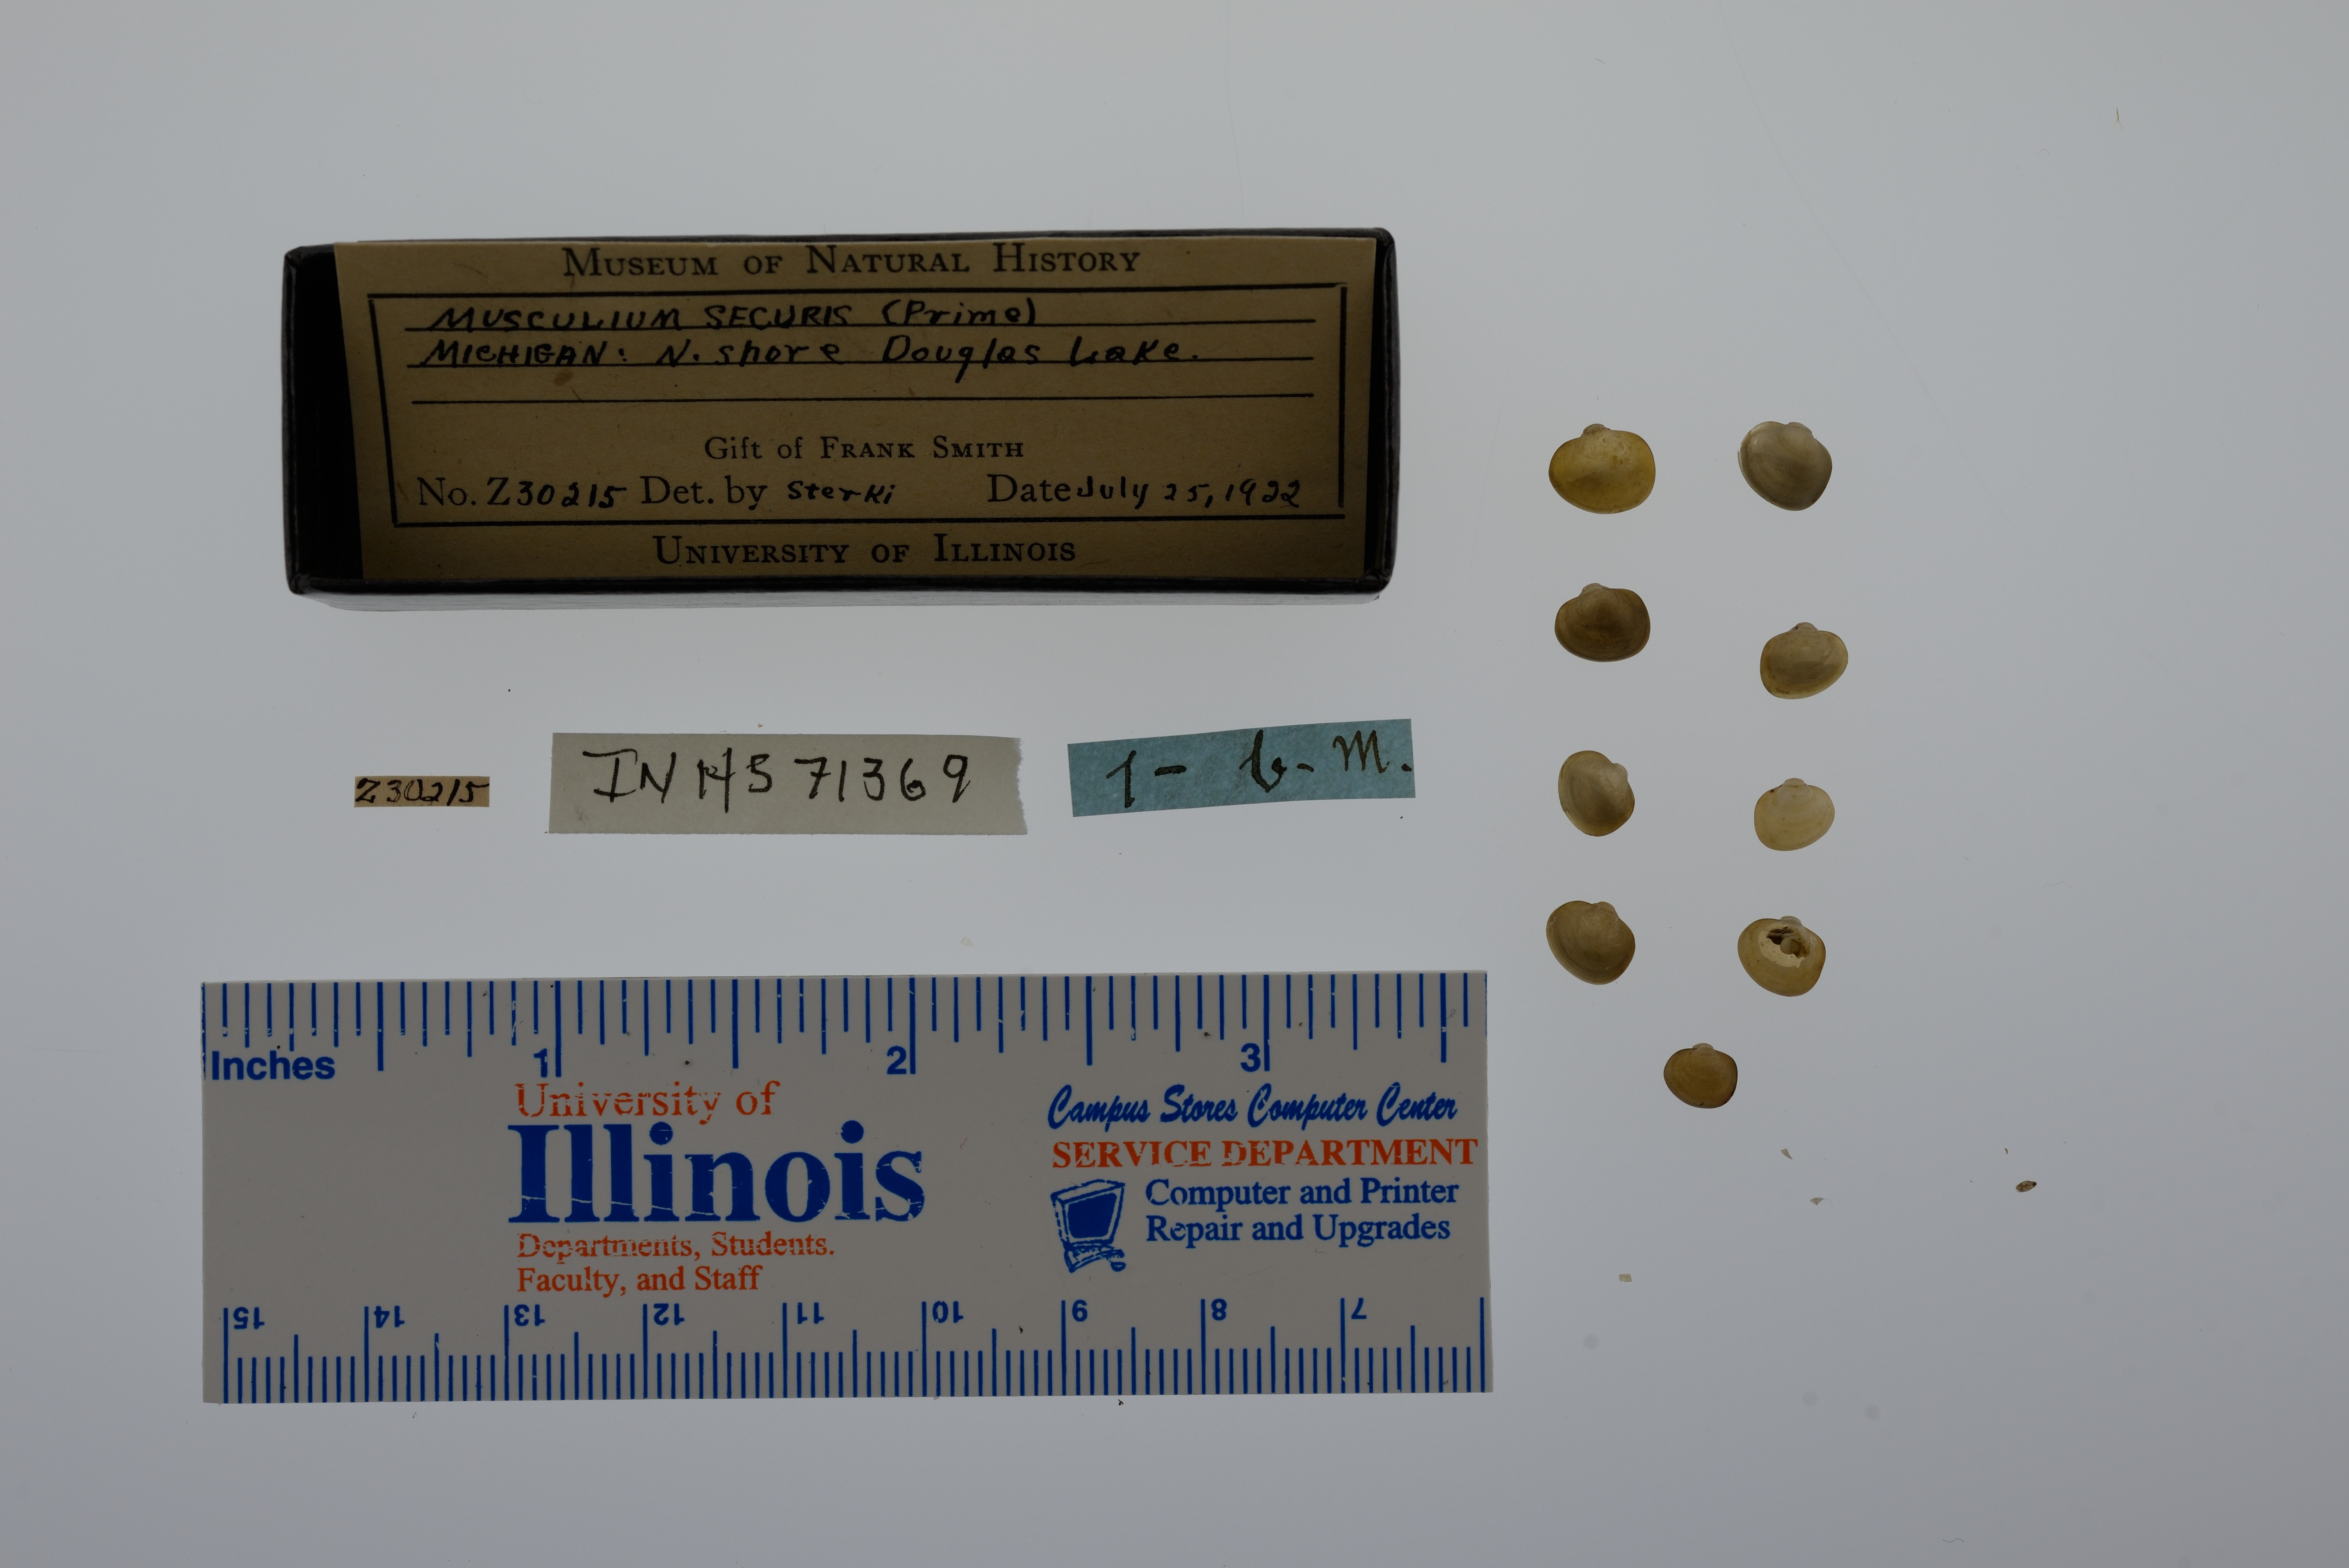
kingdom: Animalia
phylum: Mollusca
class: Bivalvia
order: Sphaeriida
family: Sphaeriidae
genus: Musculium
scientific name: Musculium securis
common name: Pond fingerclam
